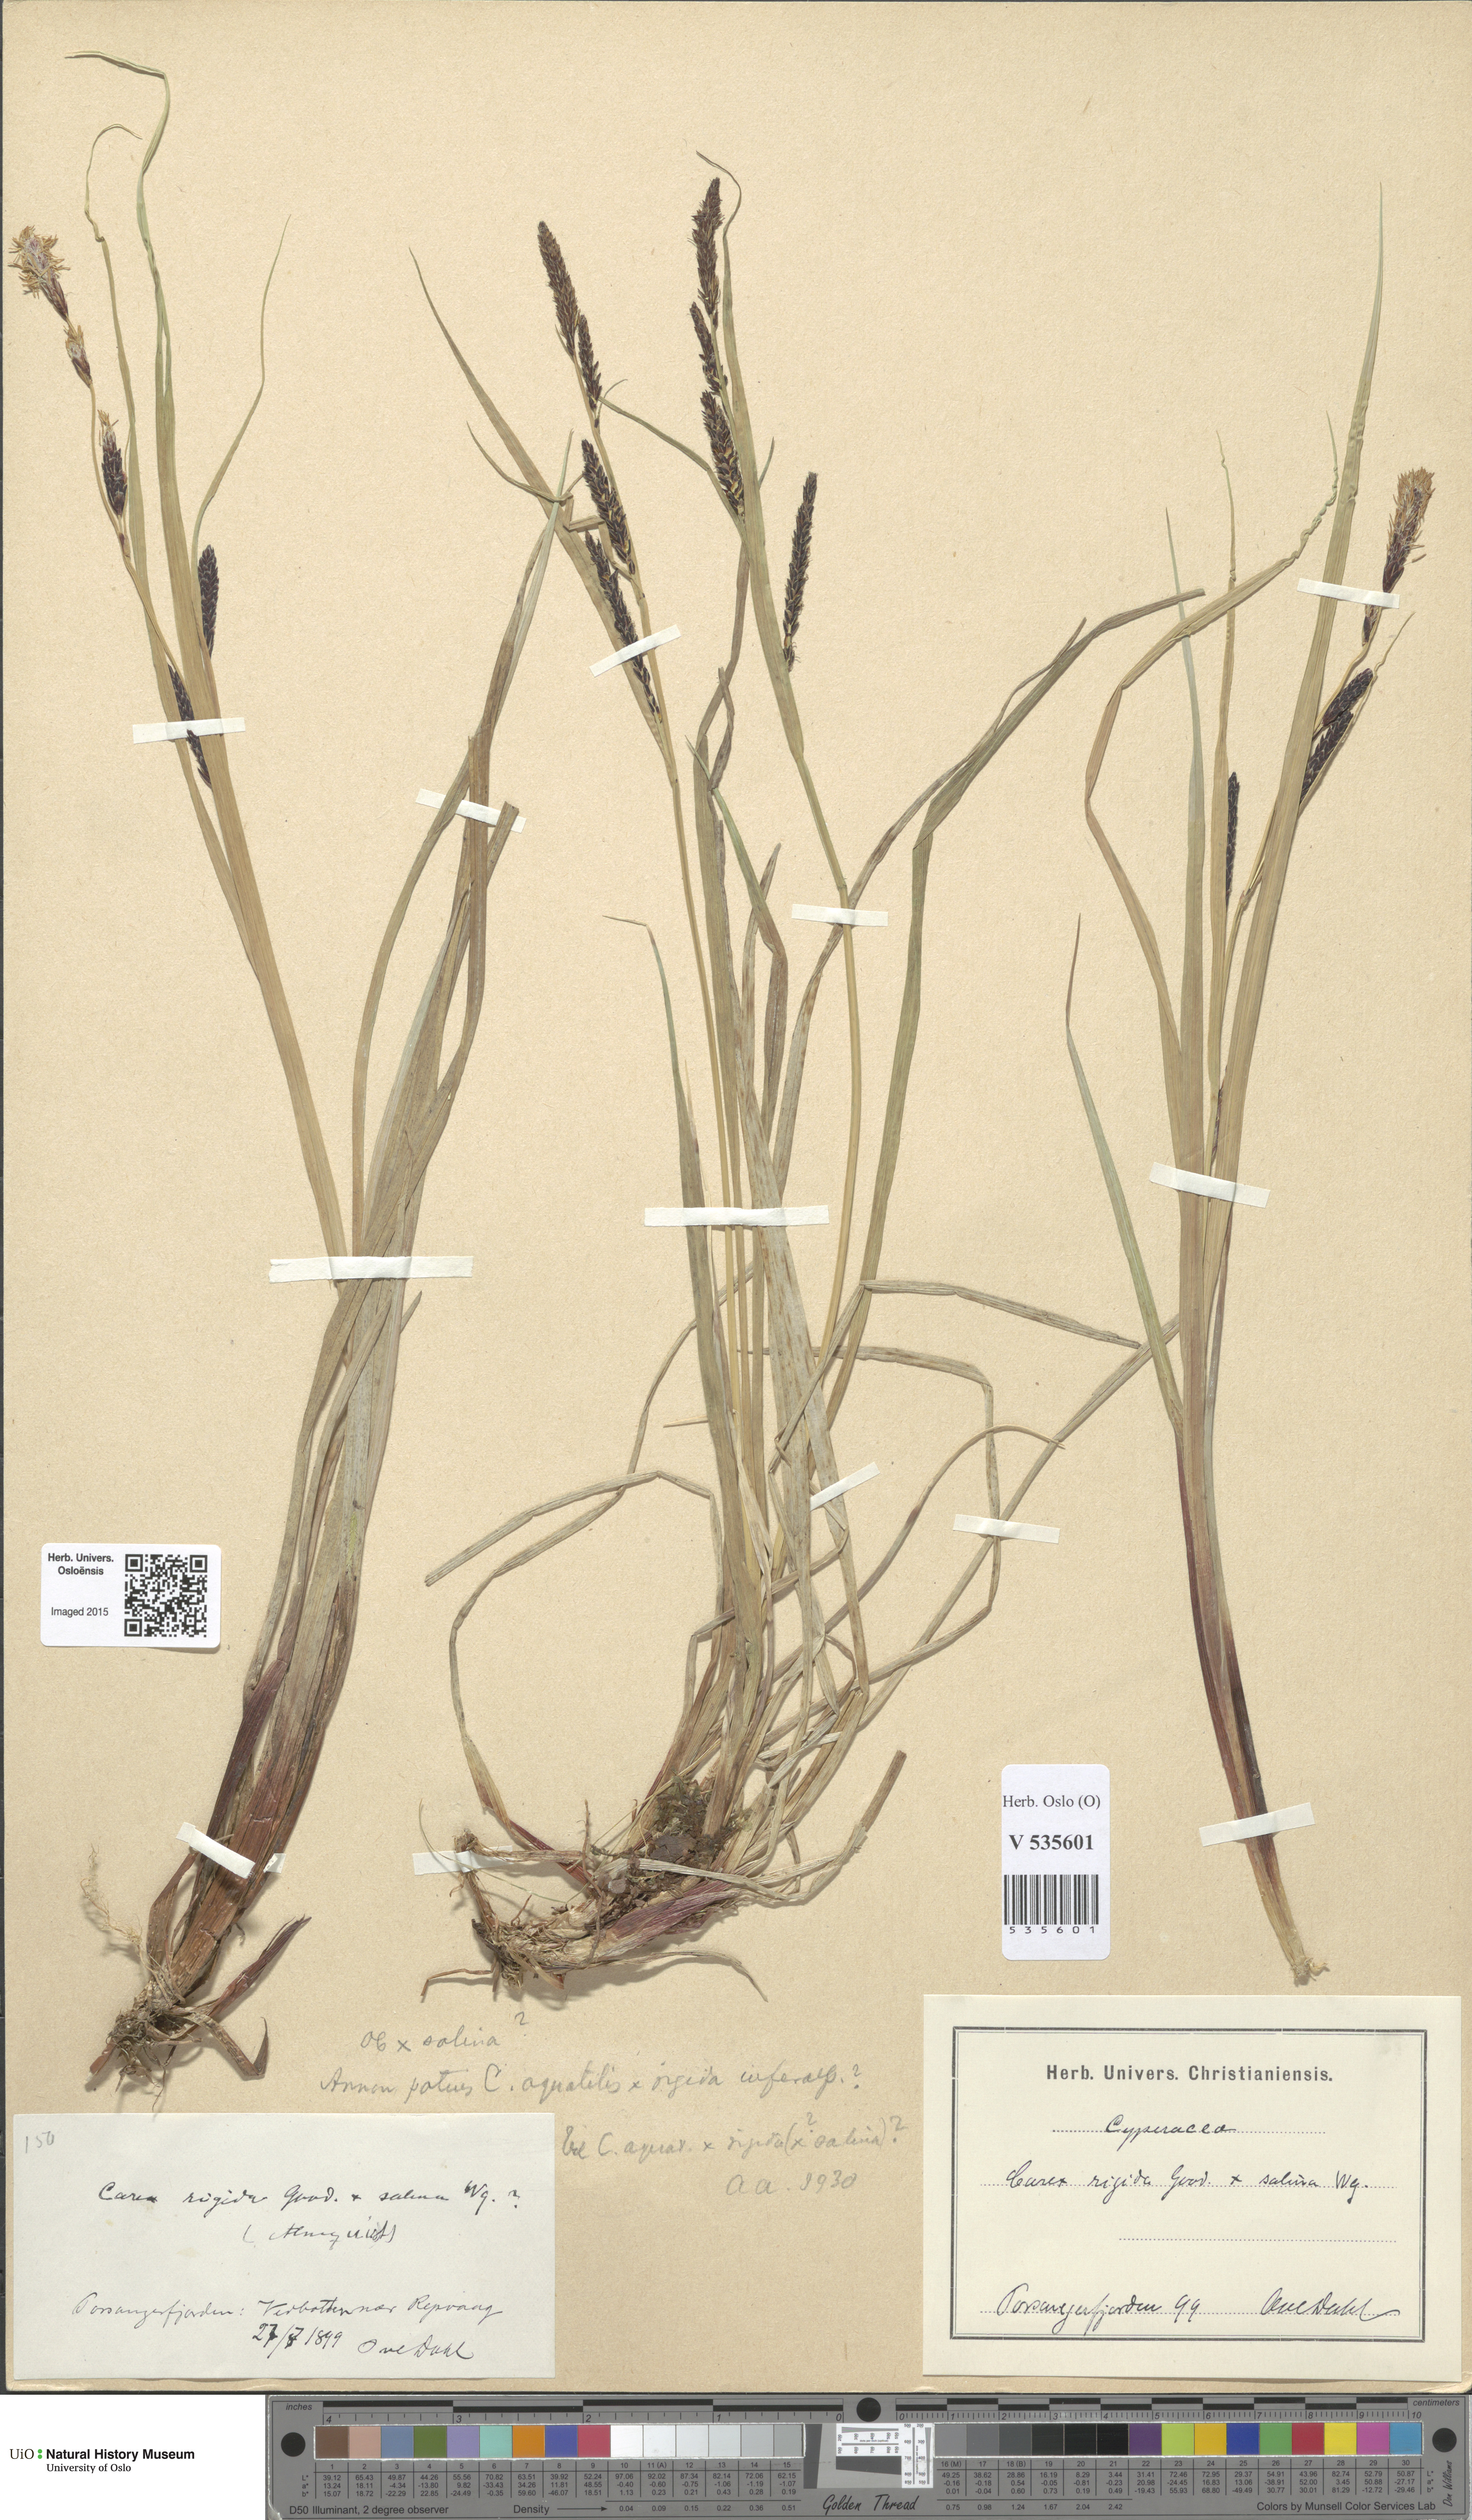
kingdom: Plantae
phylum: Tracheophyta
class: Liliopsida
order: Poales
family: Cyperaceae
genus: Carex
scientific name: Carex
